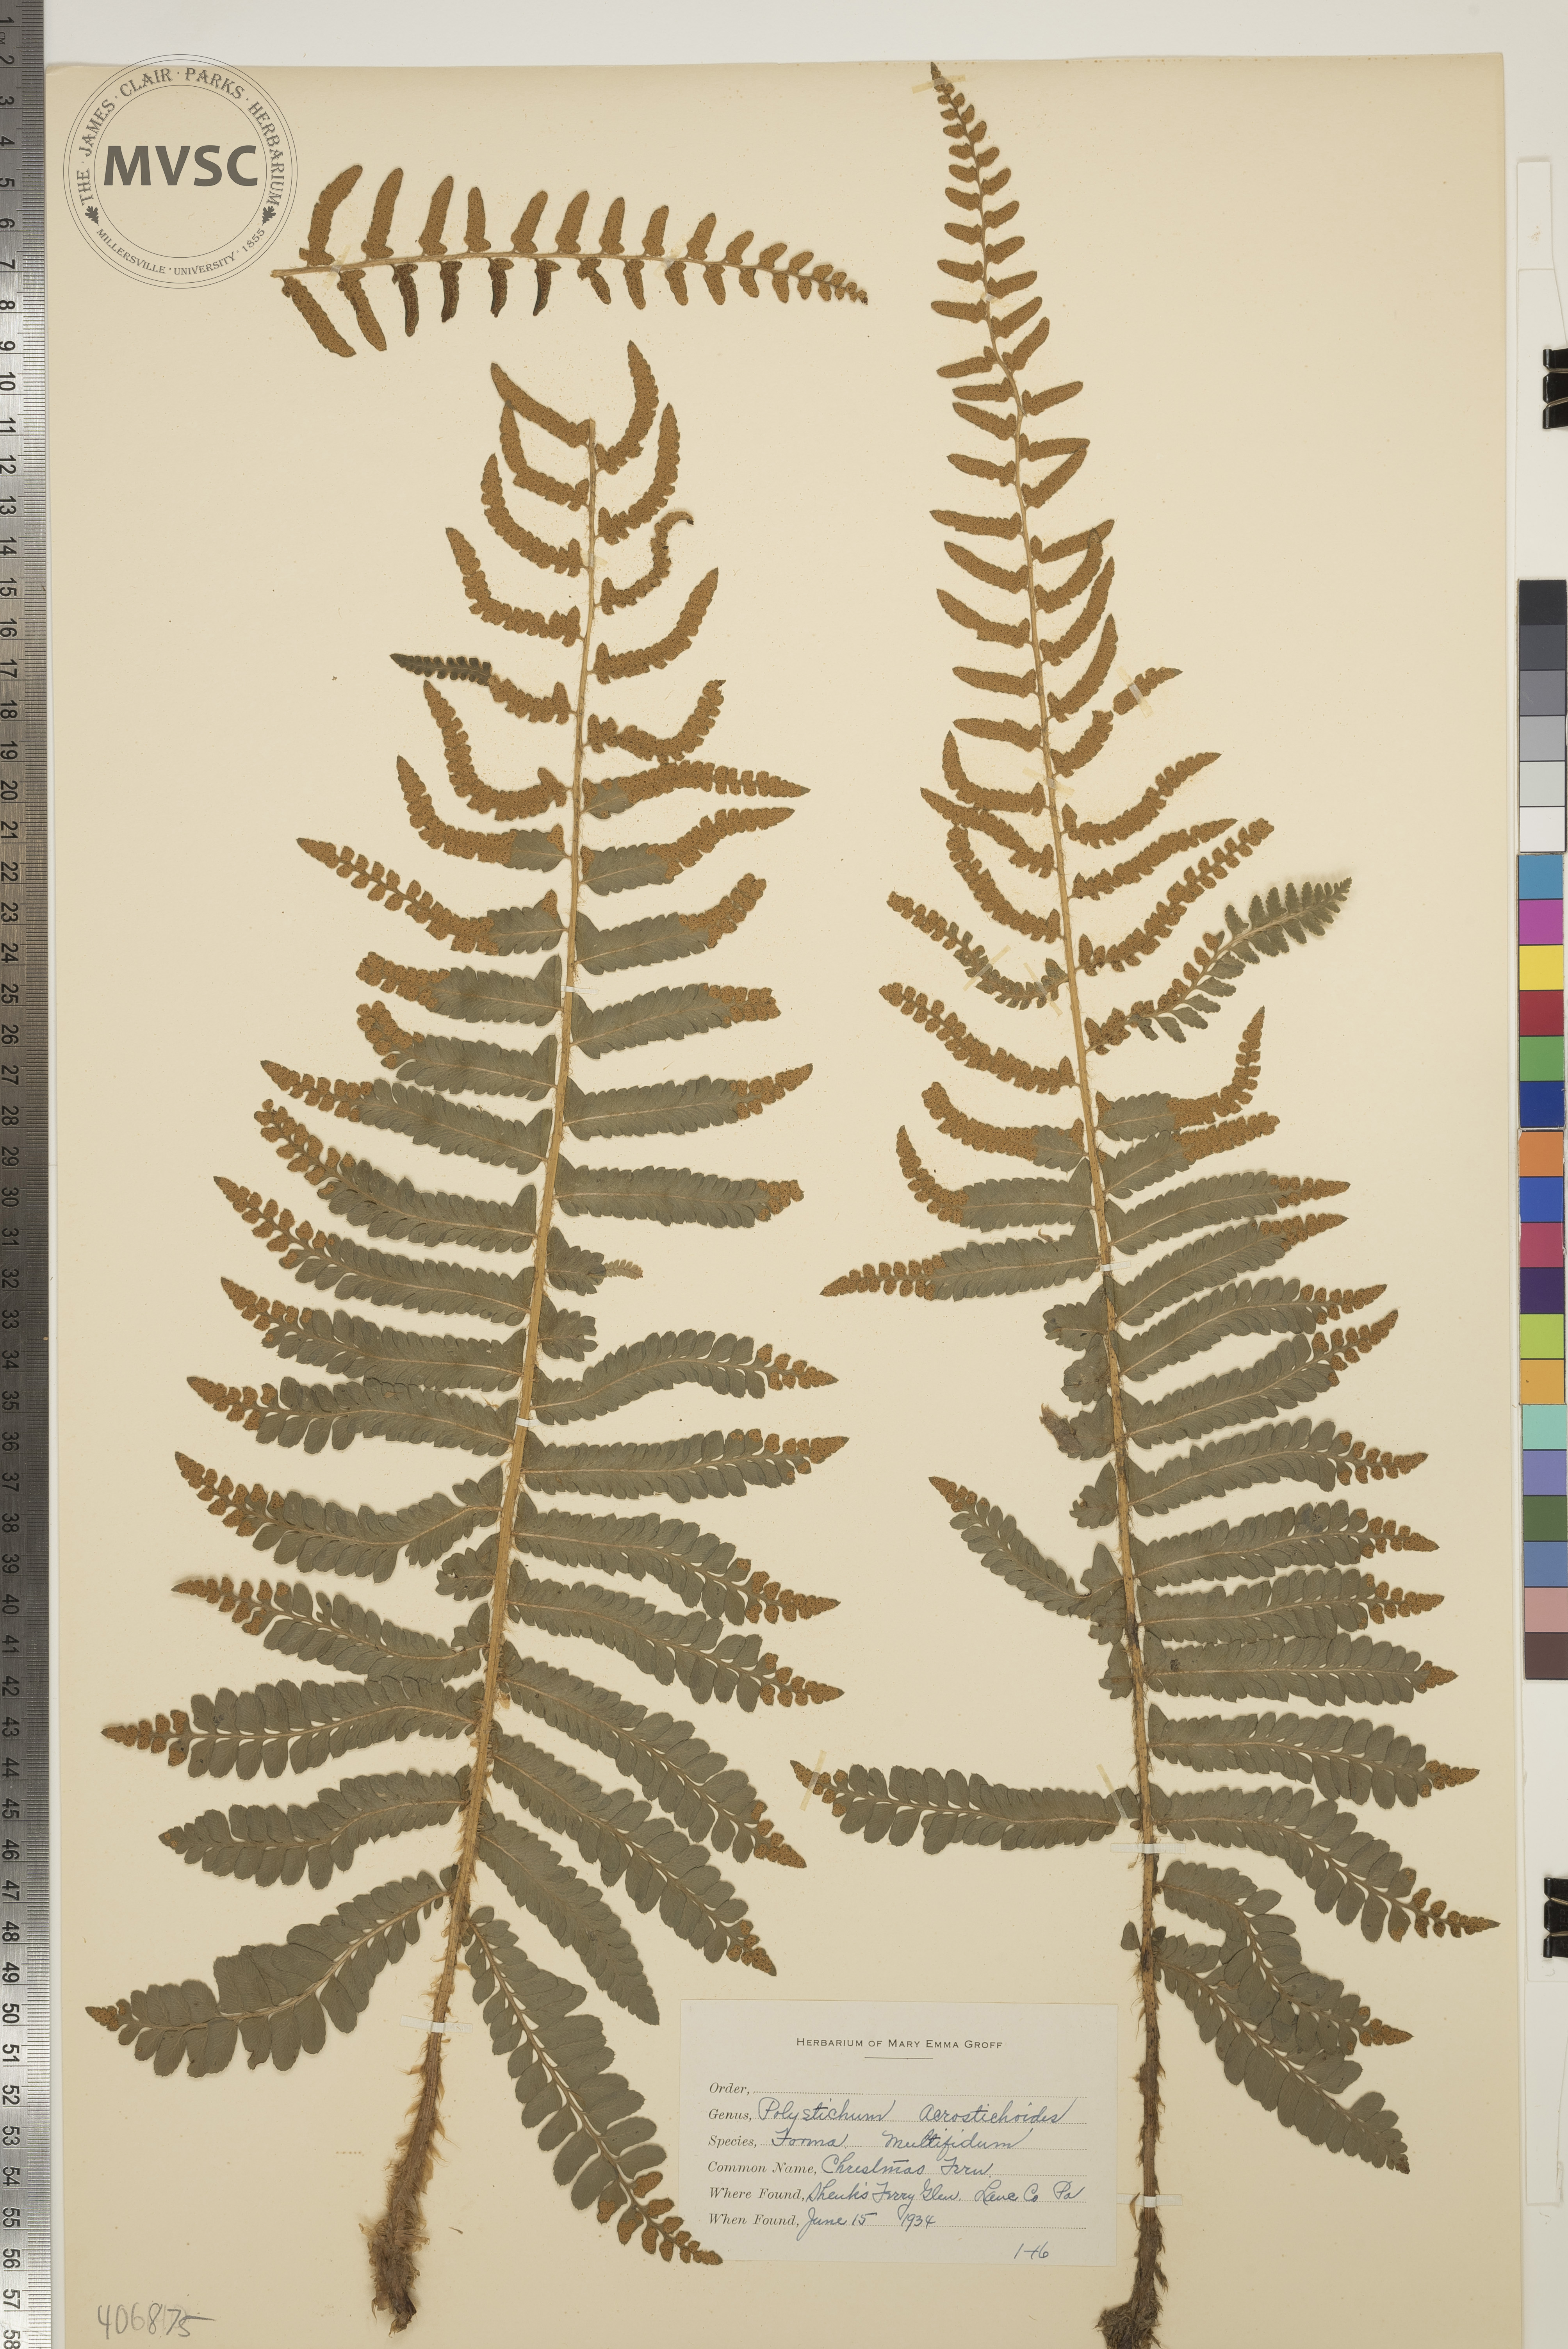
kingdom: Plantae
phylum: Tracheophyta
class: Polypodiopsida
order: Polypodiales
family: Dryopteridaceae
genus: Polystichum
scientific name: Polystichum acrostichoides
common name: Christmas Fern
